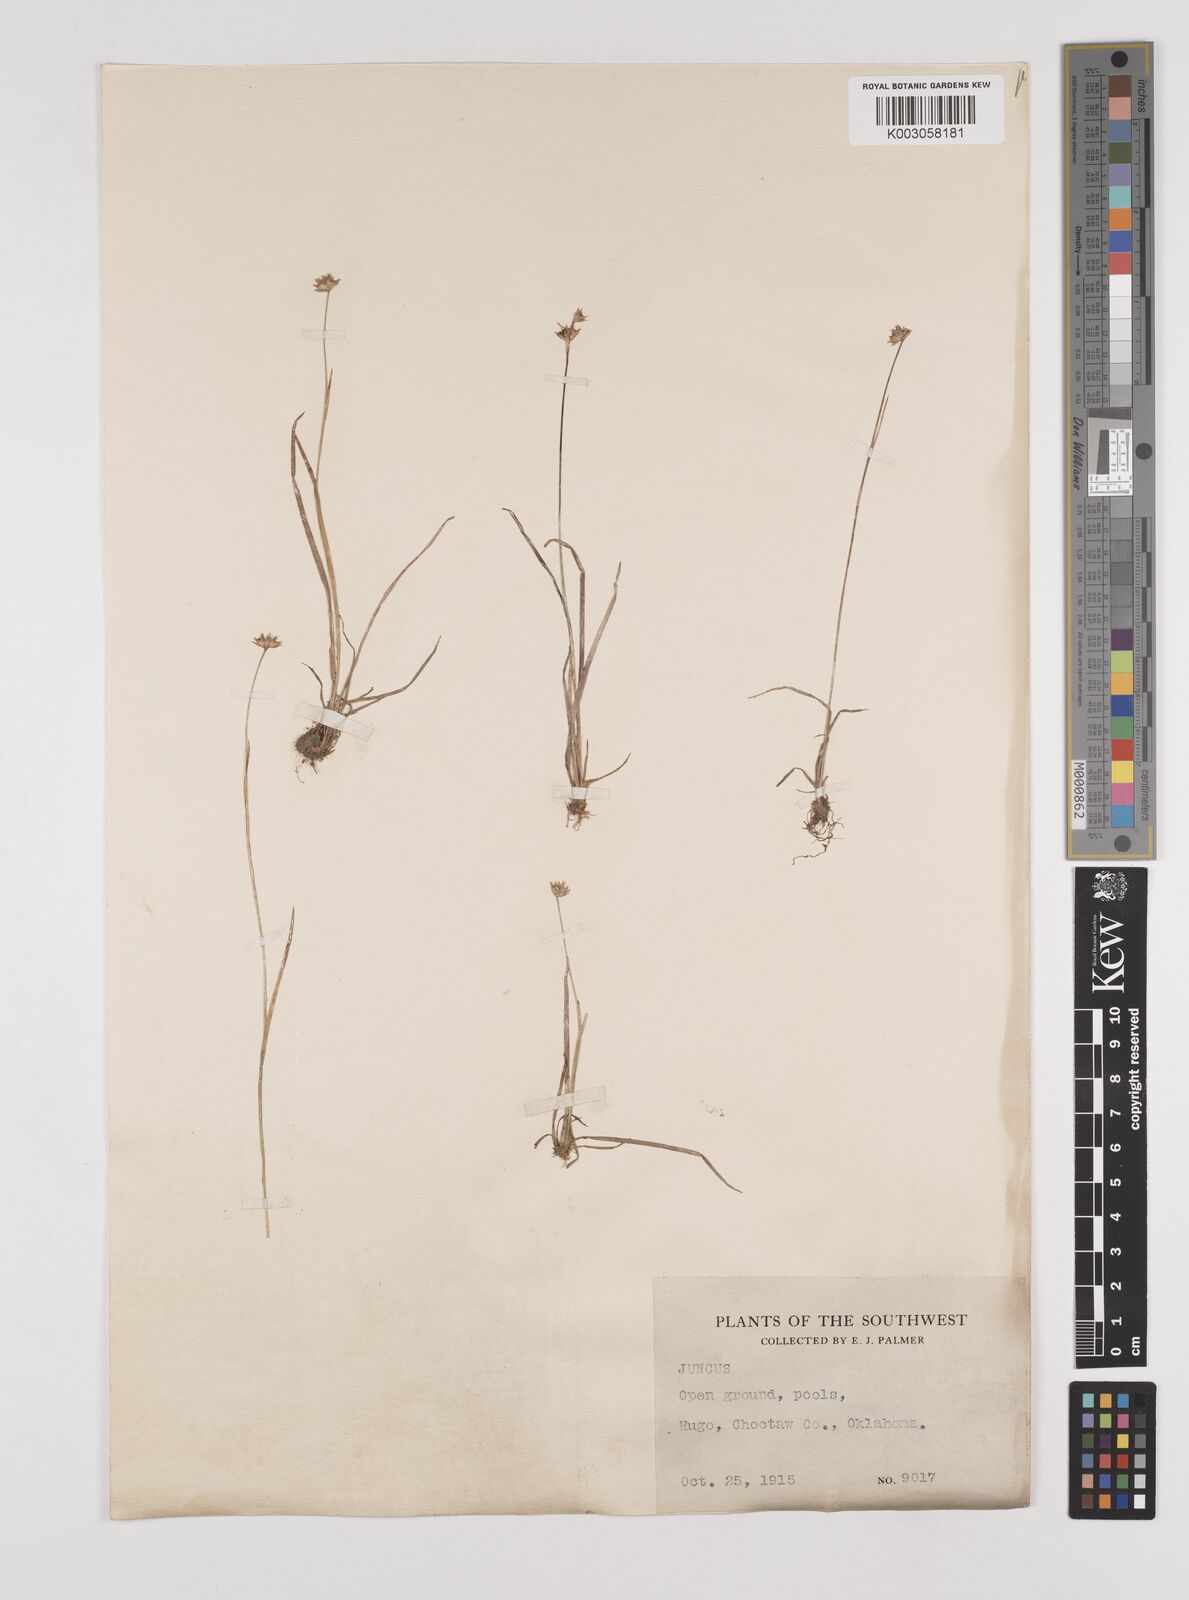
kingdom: Plantae
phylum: Tracheophyta
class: Liliopsida
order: Poales
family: Juncaceae
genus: Juncus
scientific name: Juncus
